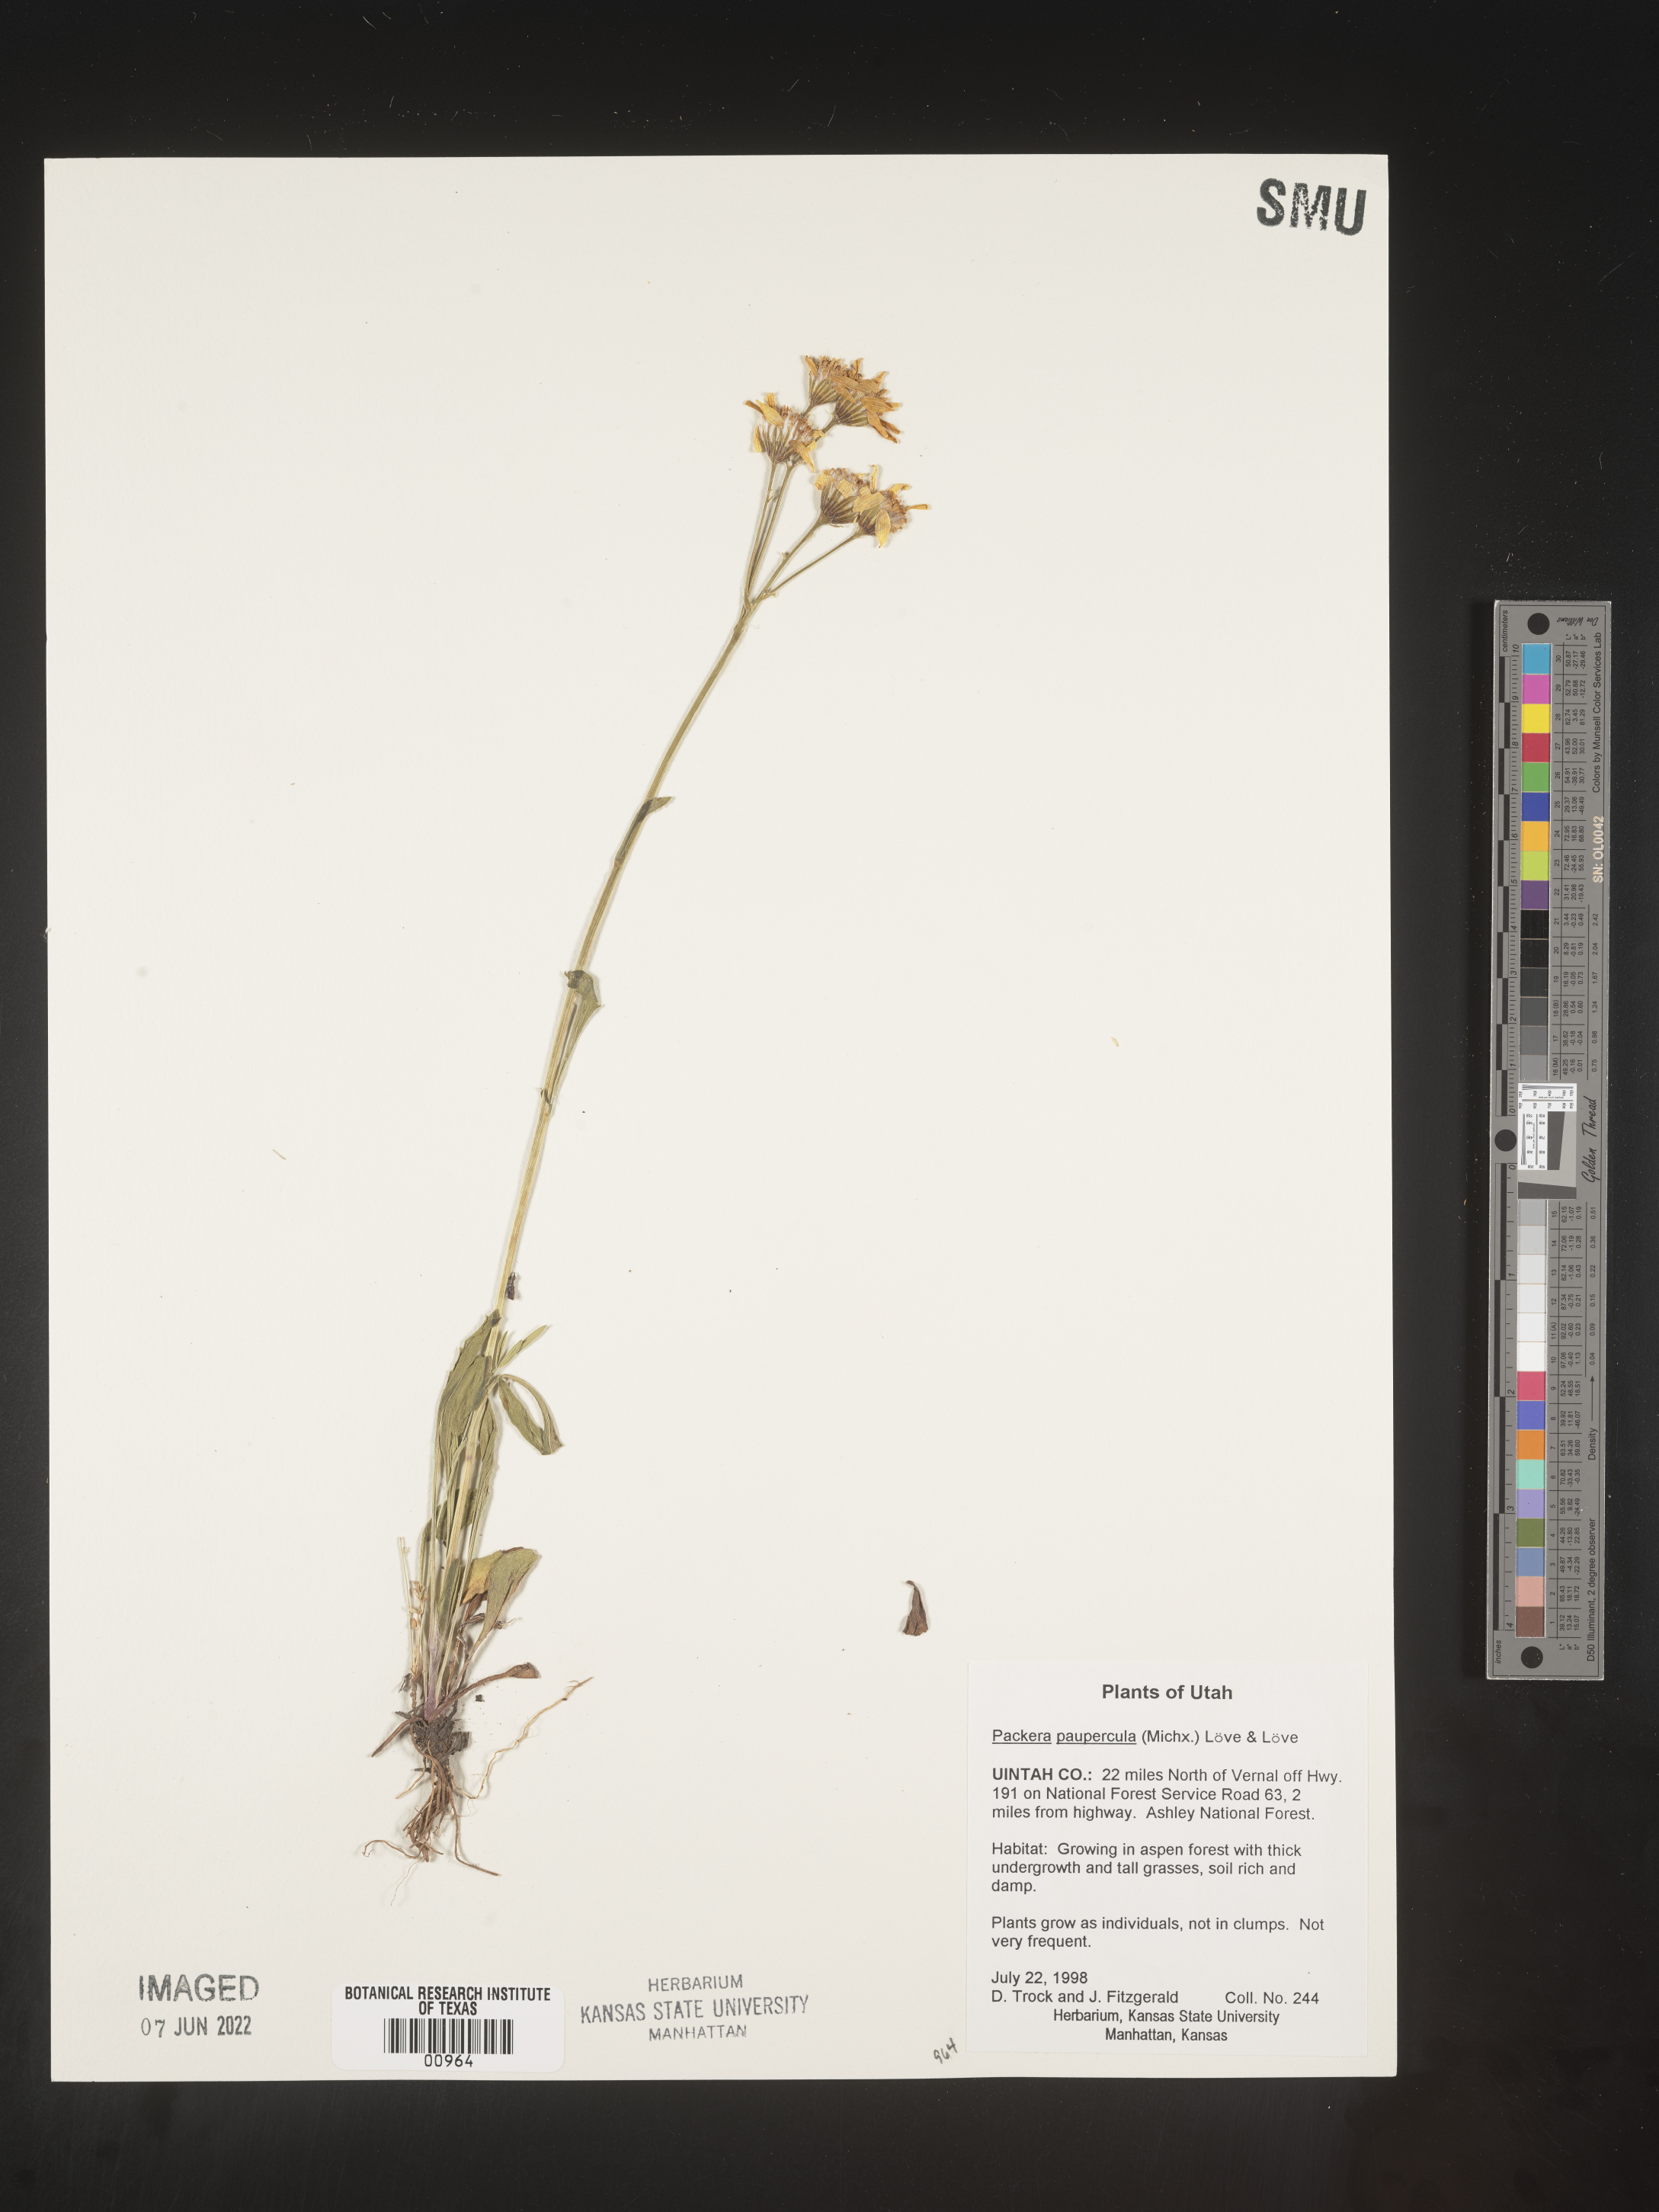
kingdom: Plantae
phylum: Tracheophyta
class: Magnoliopsida
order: Asterales
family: Asteraceae
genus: Packera
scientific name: Packera paupercula
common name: Balsam groundsel
